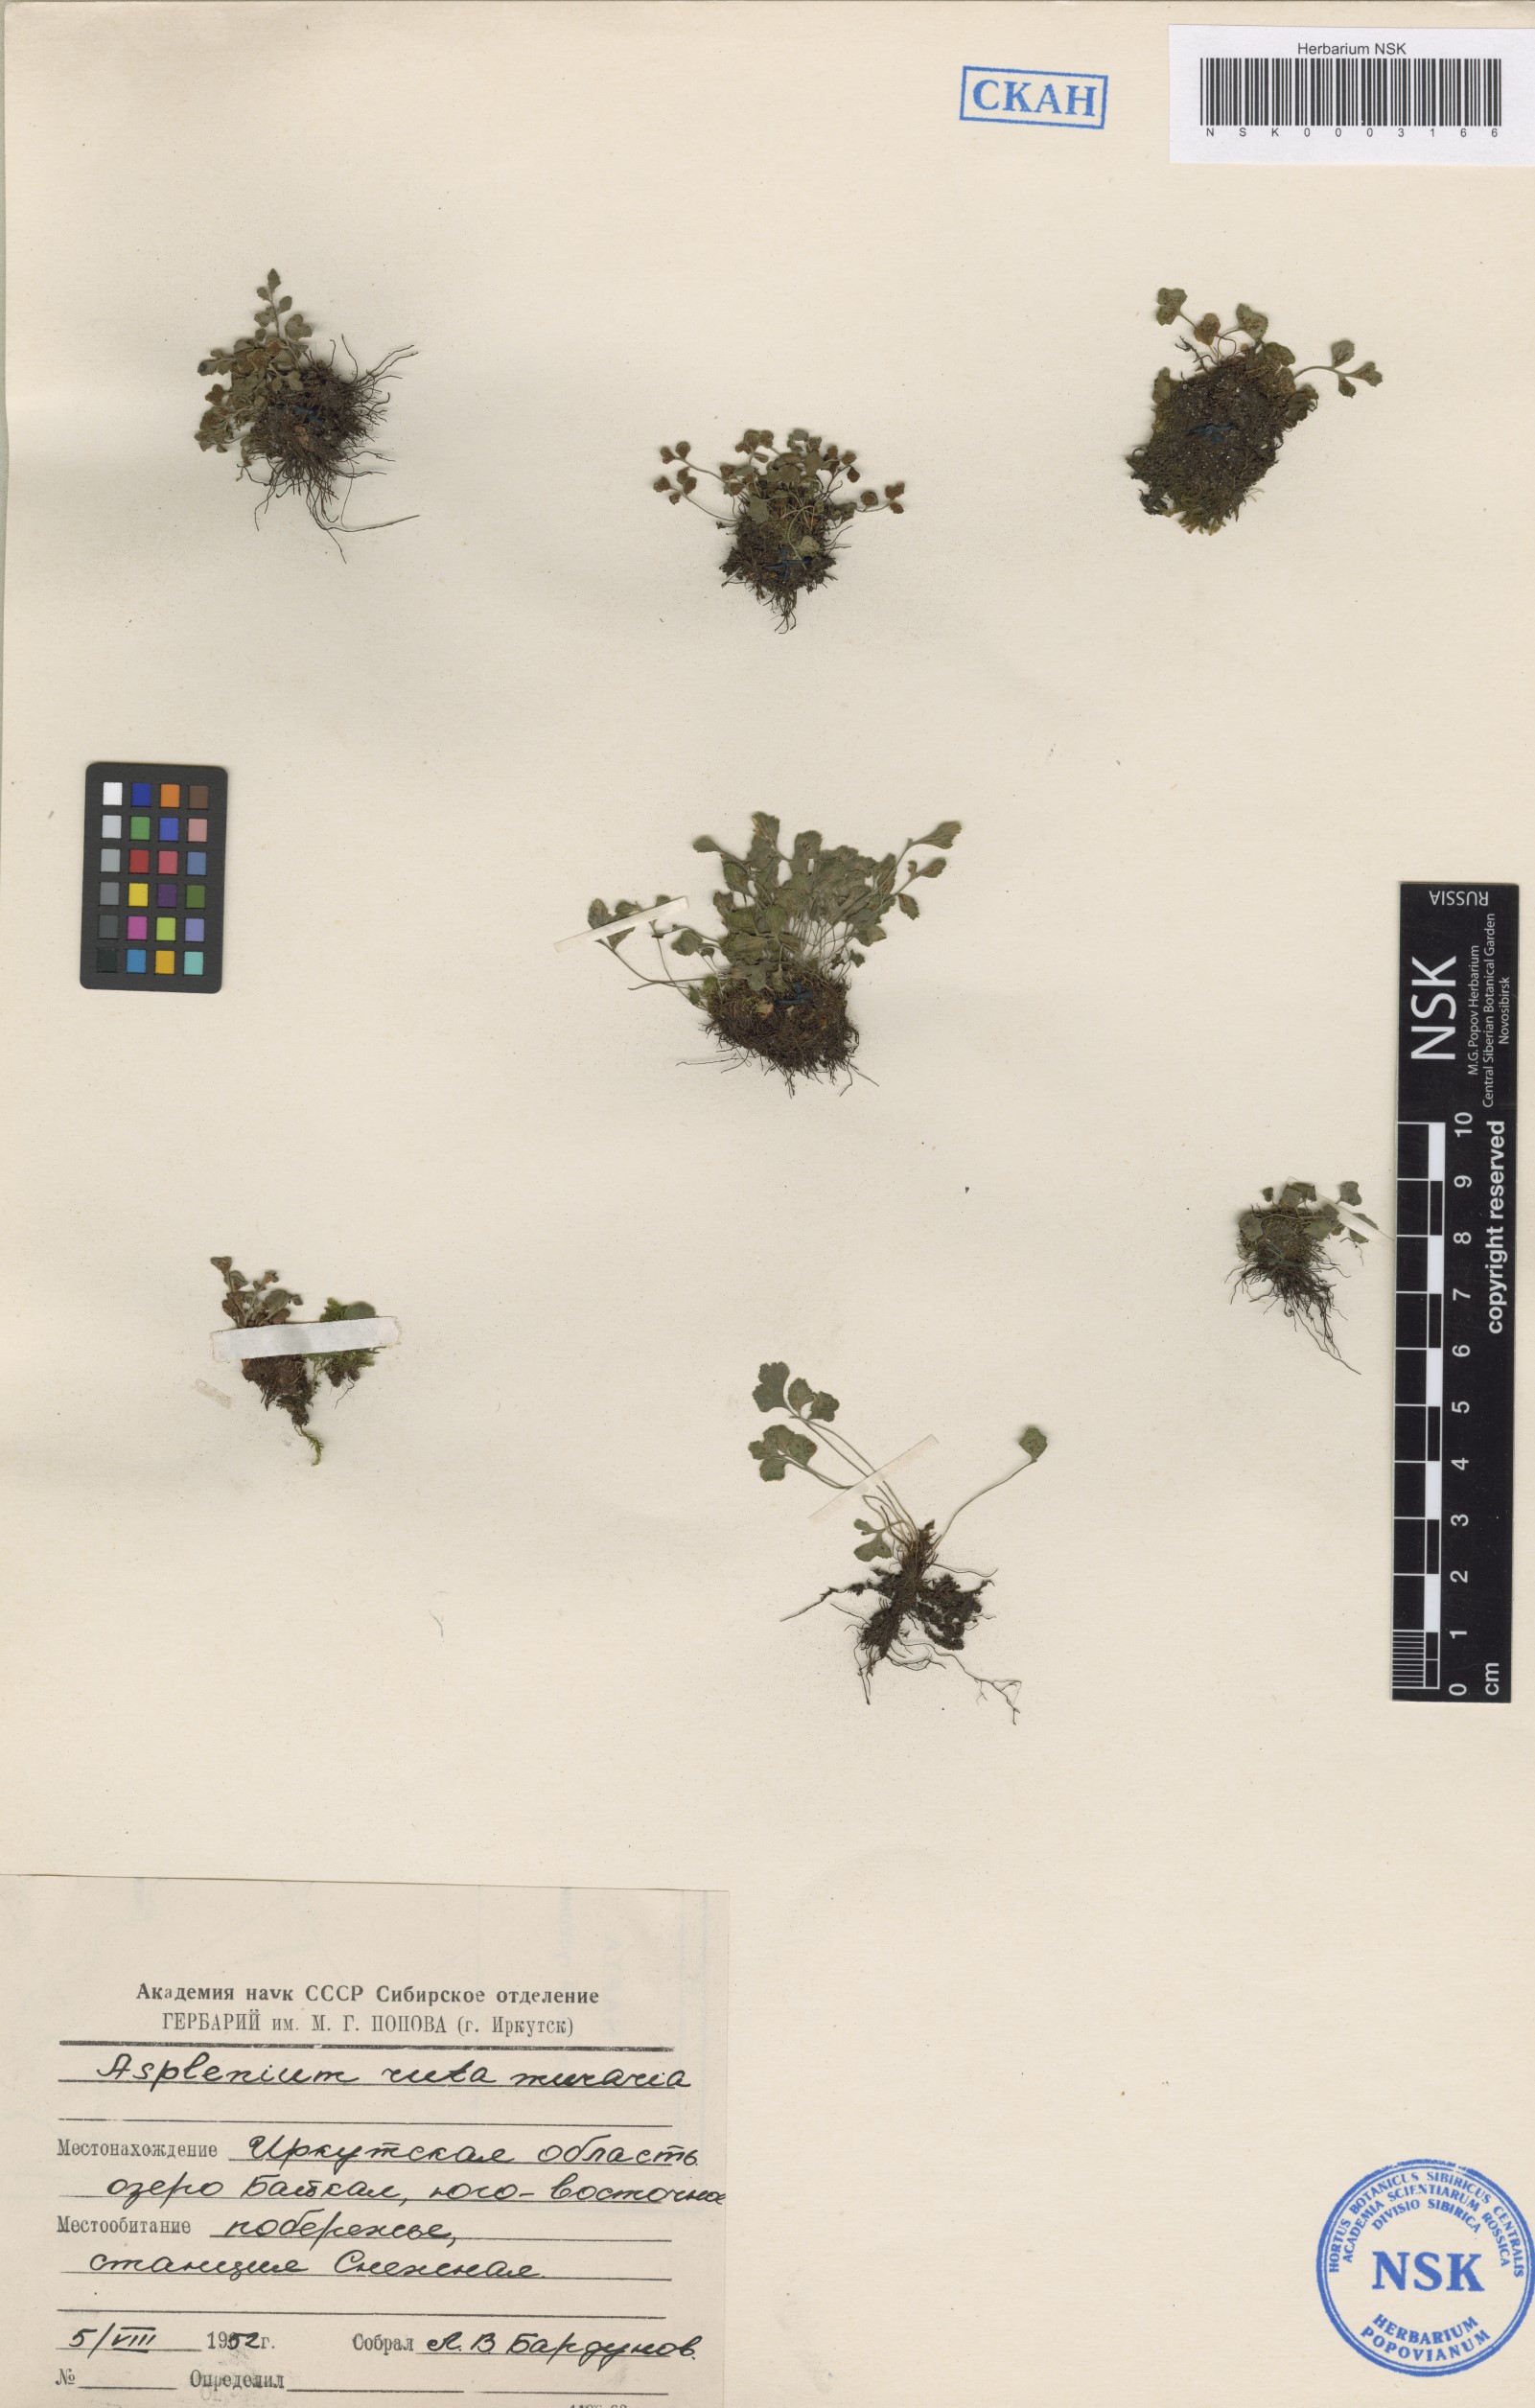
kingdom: Plantae
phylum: Tracheophyta
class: Polypodiopsida
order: Polypodiales
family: Aspleniaceae
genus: Asplenium
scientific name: Asplenium ruta-muraria
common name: Wall-rue
